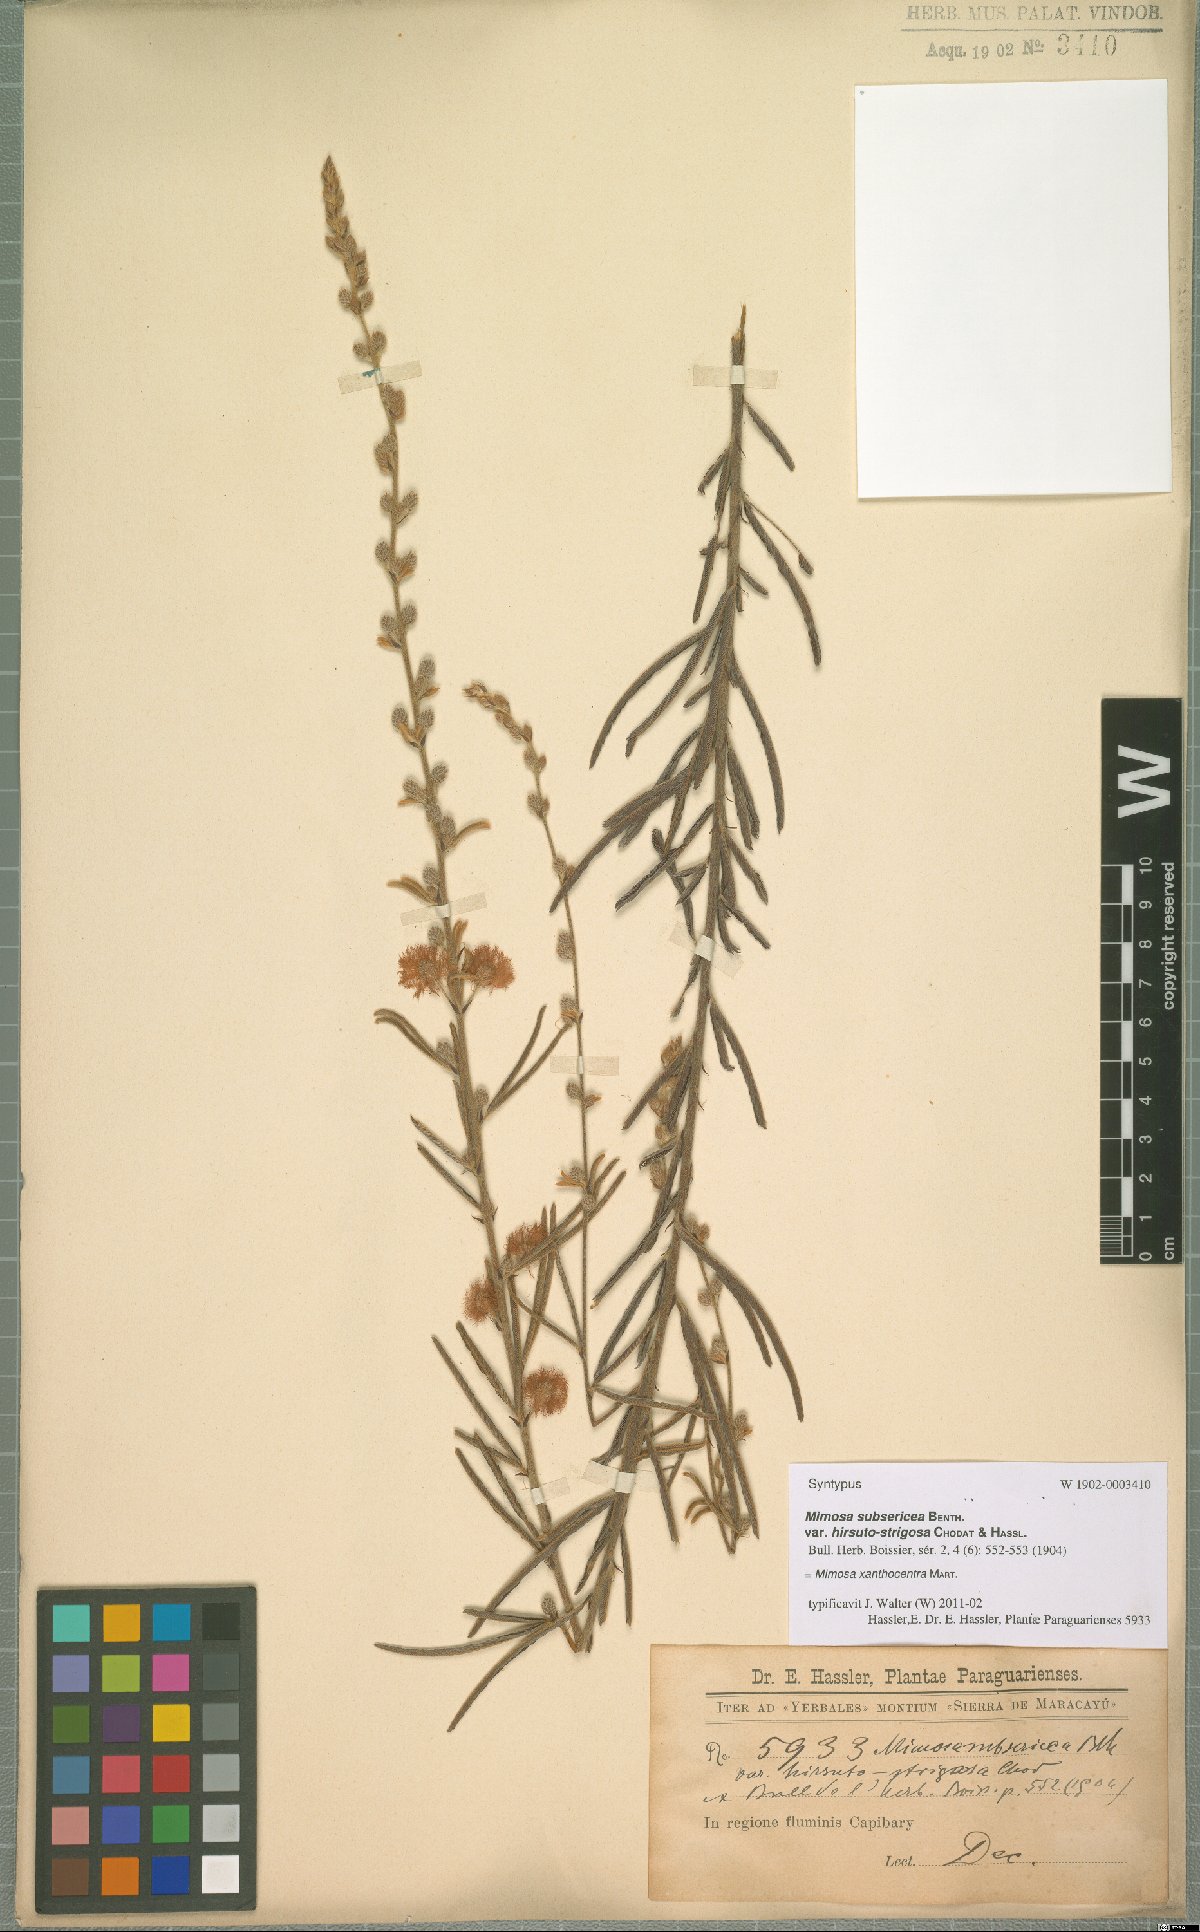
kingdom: Plantae
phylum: Tracheophyta
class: Magnoliopsida
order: Fabales
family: Fabaceae
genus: Mimosa
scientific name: Mimosa xanthocentra
